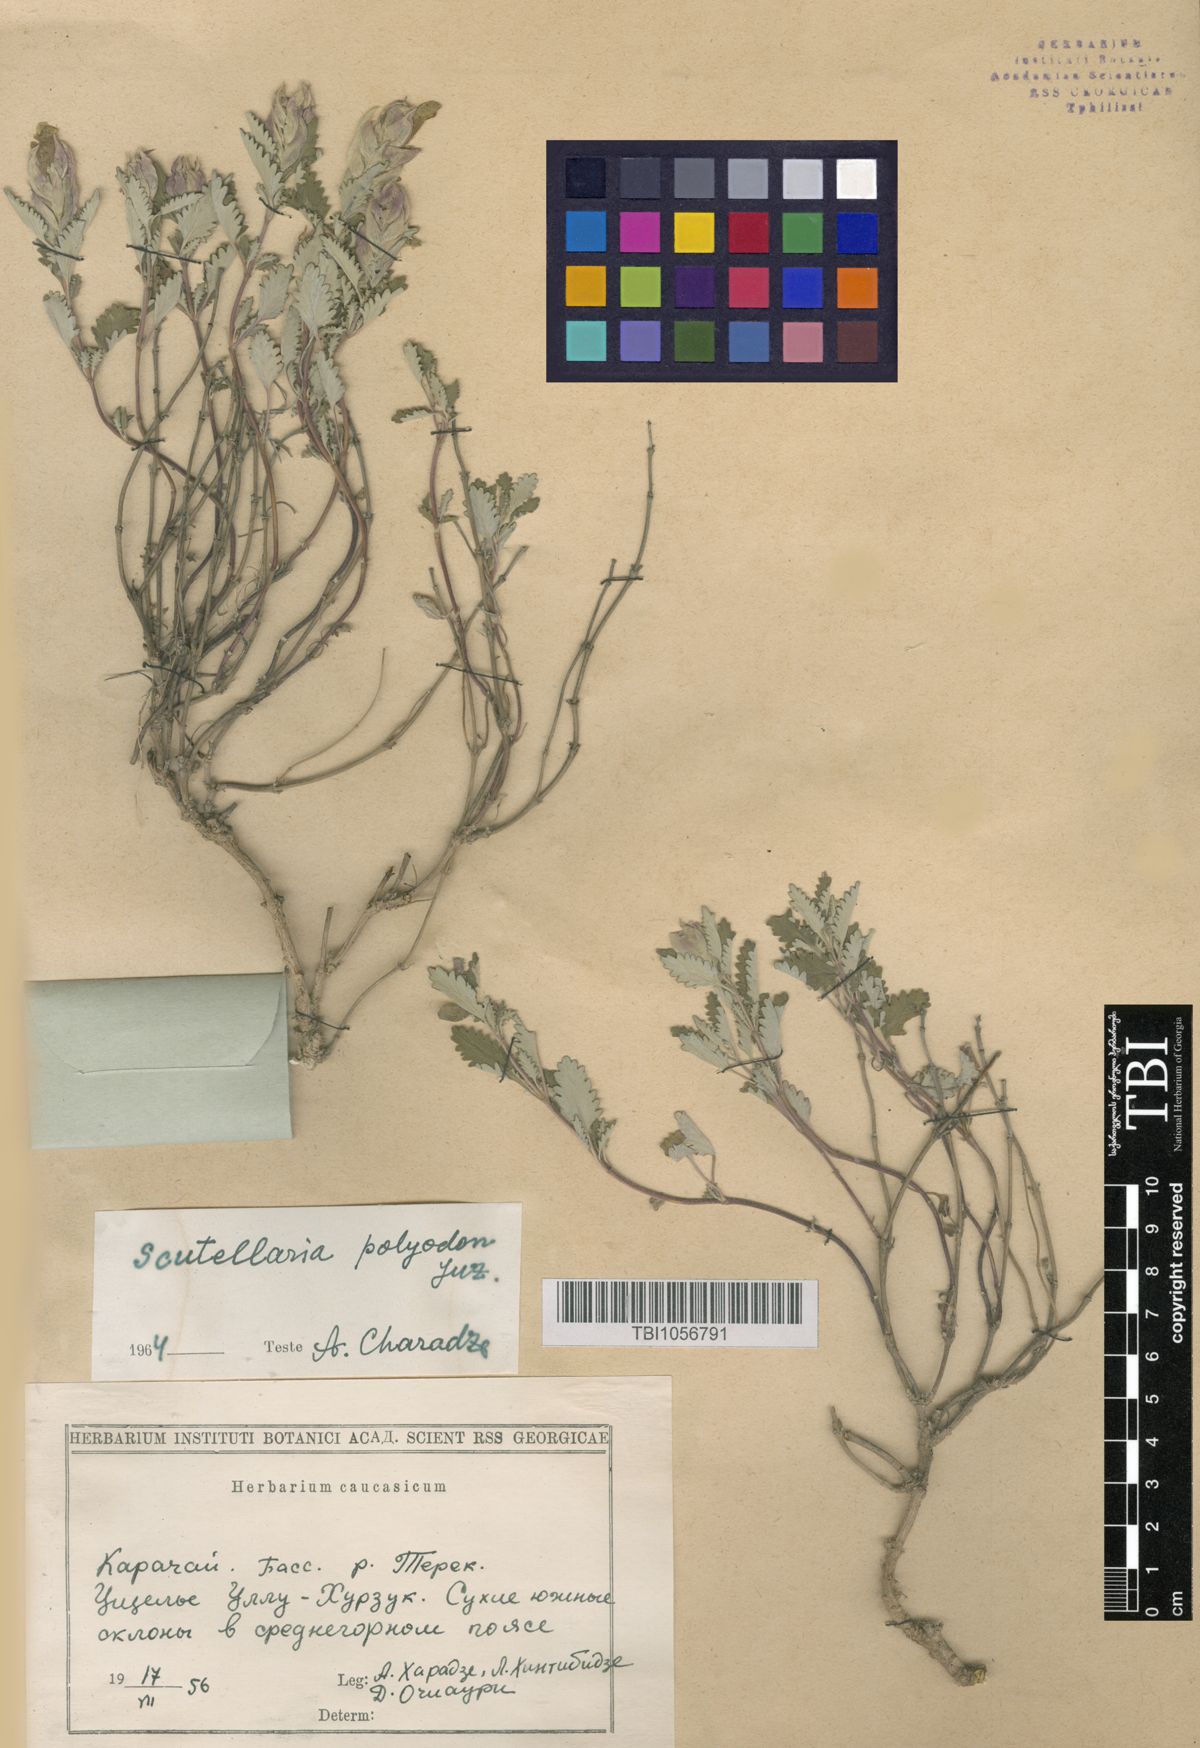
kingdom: Plantae
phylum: Tracheophyta
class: Magnoliopsida
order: Lamiales
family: Lamiaceae
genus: Scutellaria
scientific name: Scutellaria caucasica
